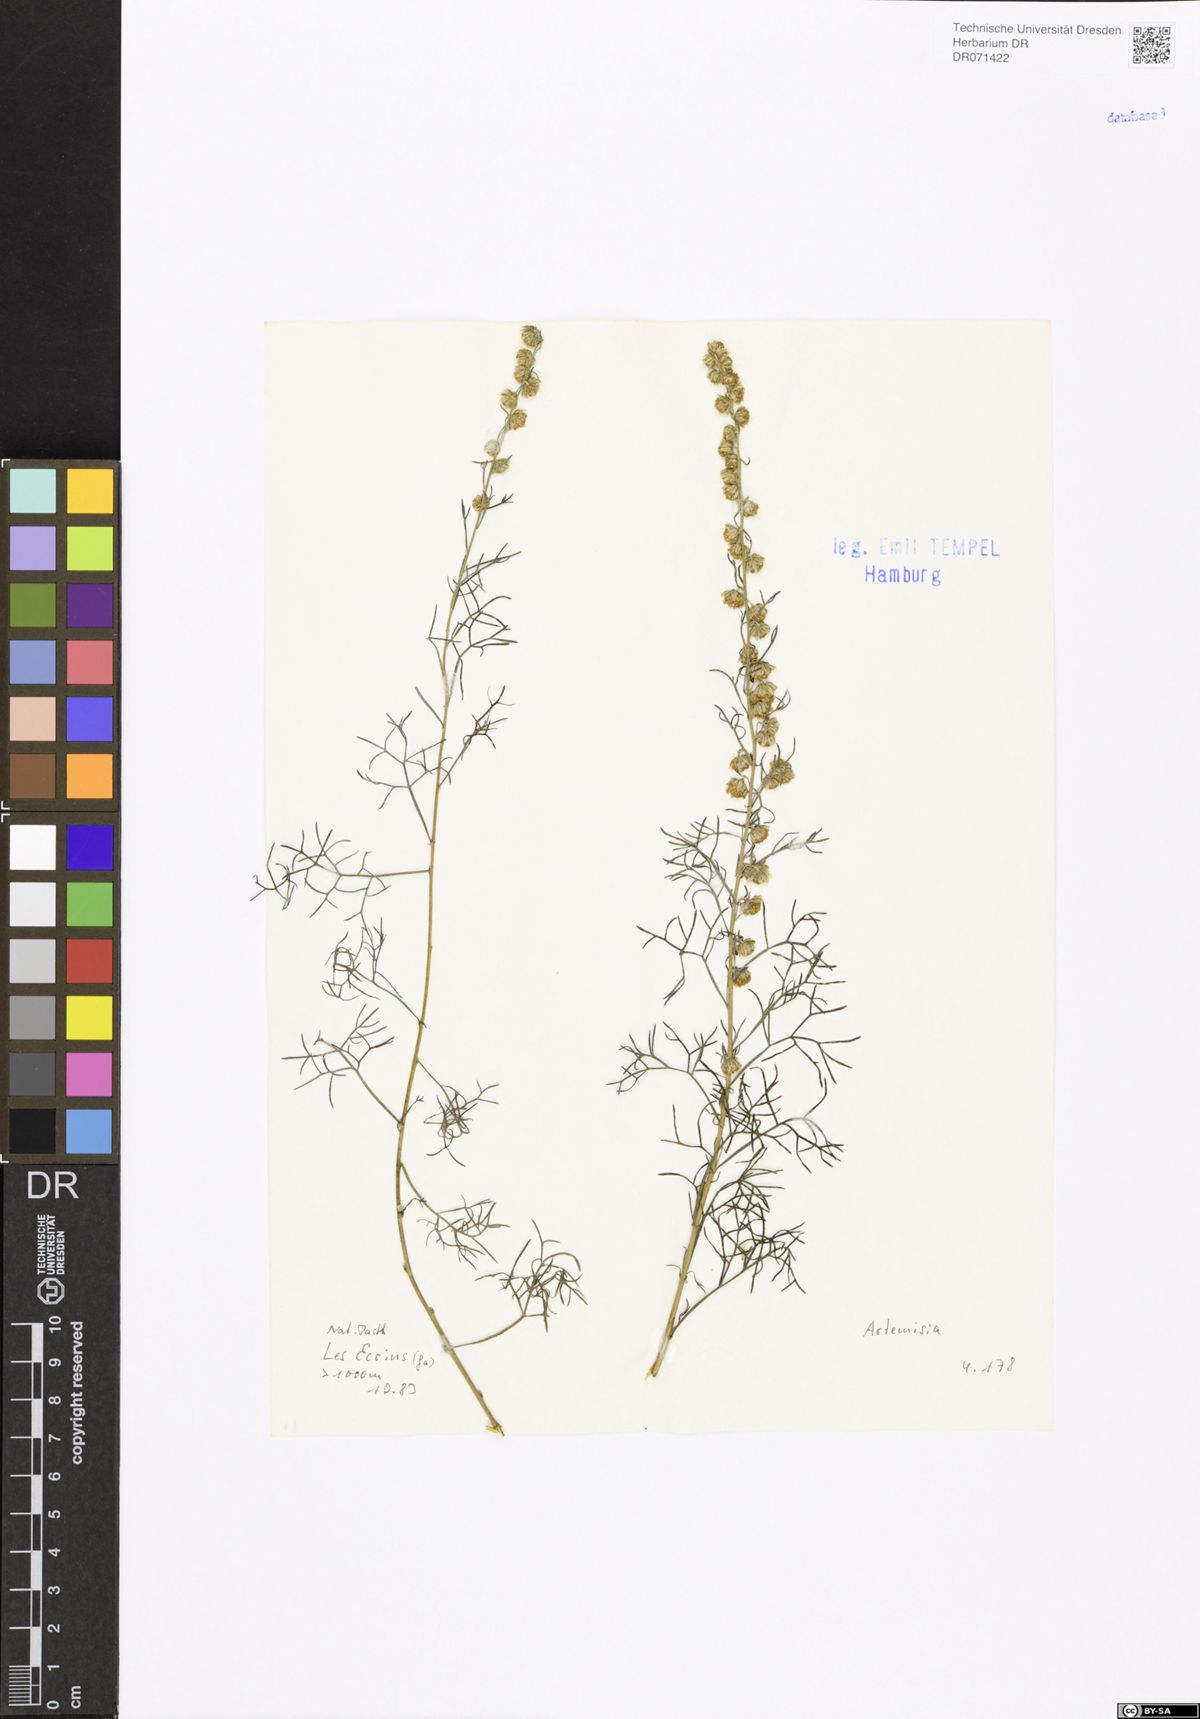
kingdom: Plantae
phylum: Tracheophyta
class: Magnoliopsida
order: Asterales
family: Asteraceae
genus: Artemisia
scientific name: Artemisia
